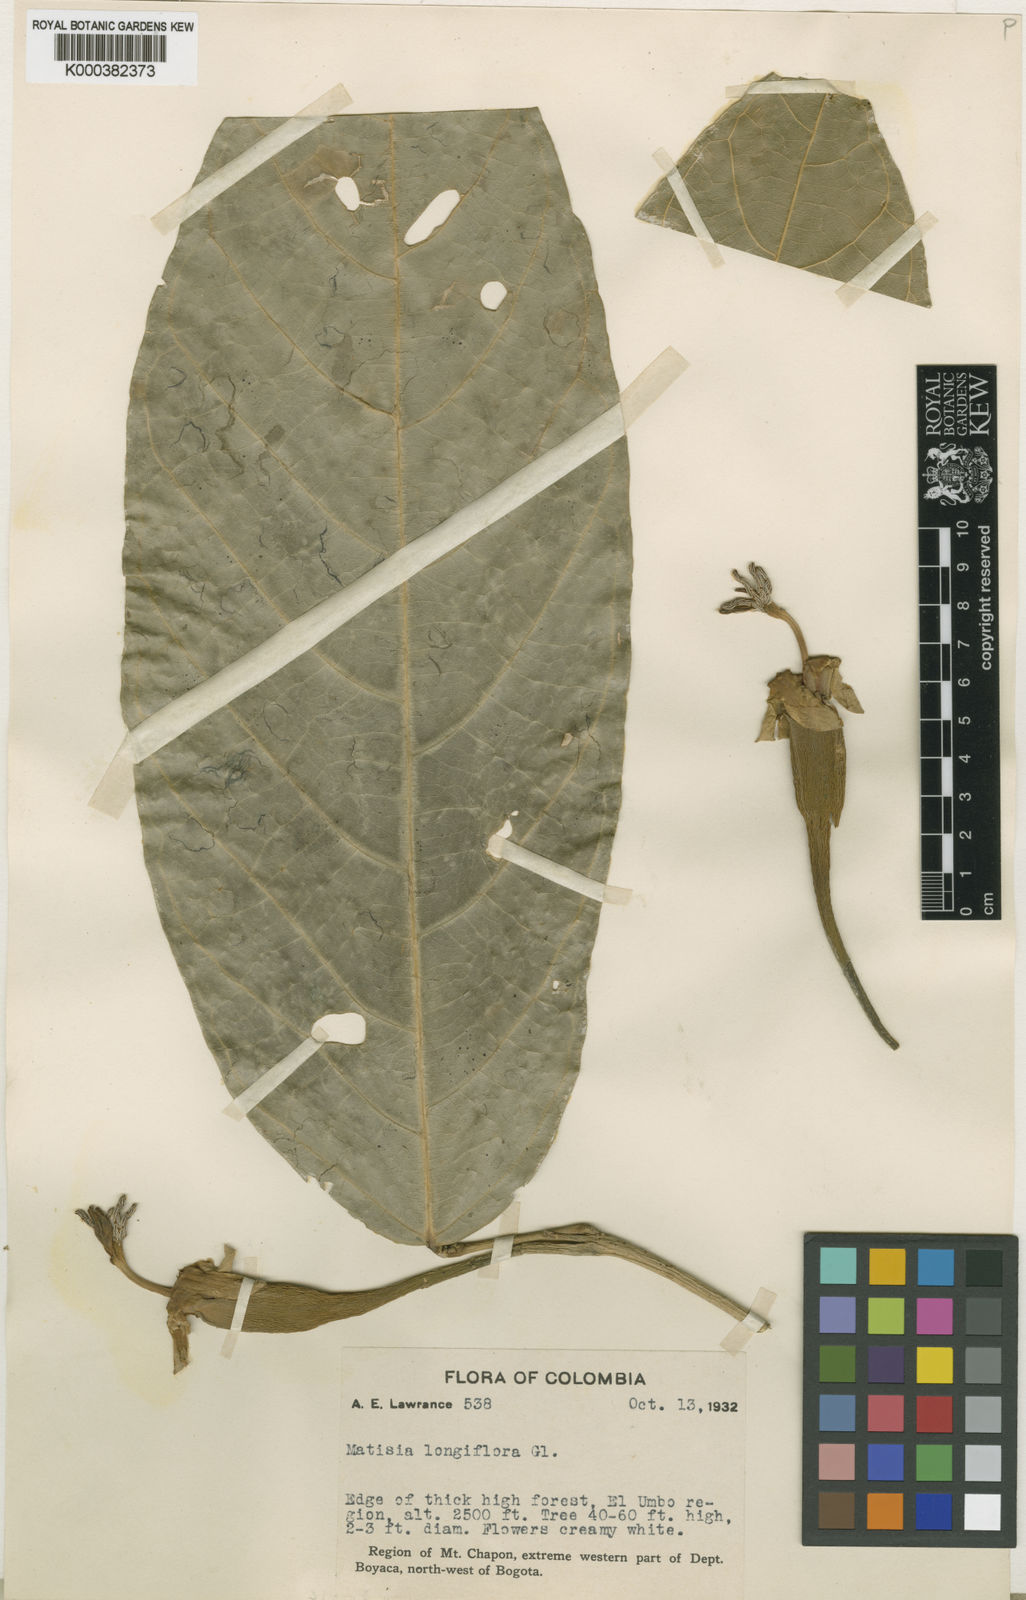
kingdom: Plantae
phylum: Tracheophyta
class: Magnoliopsida
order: Malvales
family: Malvaceae
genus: Matisia
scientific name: Matisia longiflora
